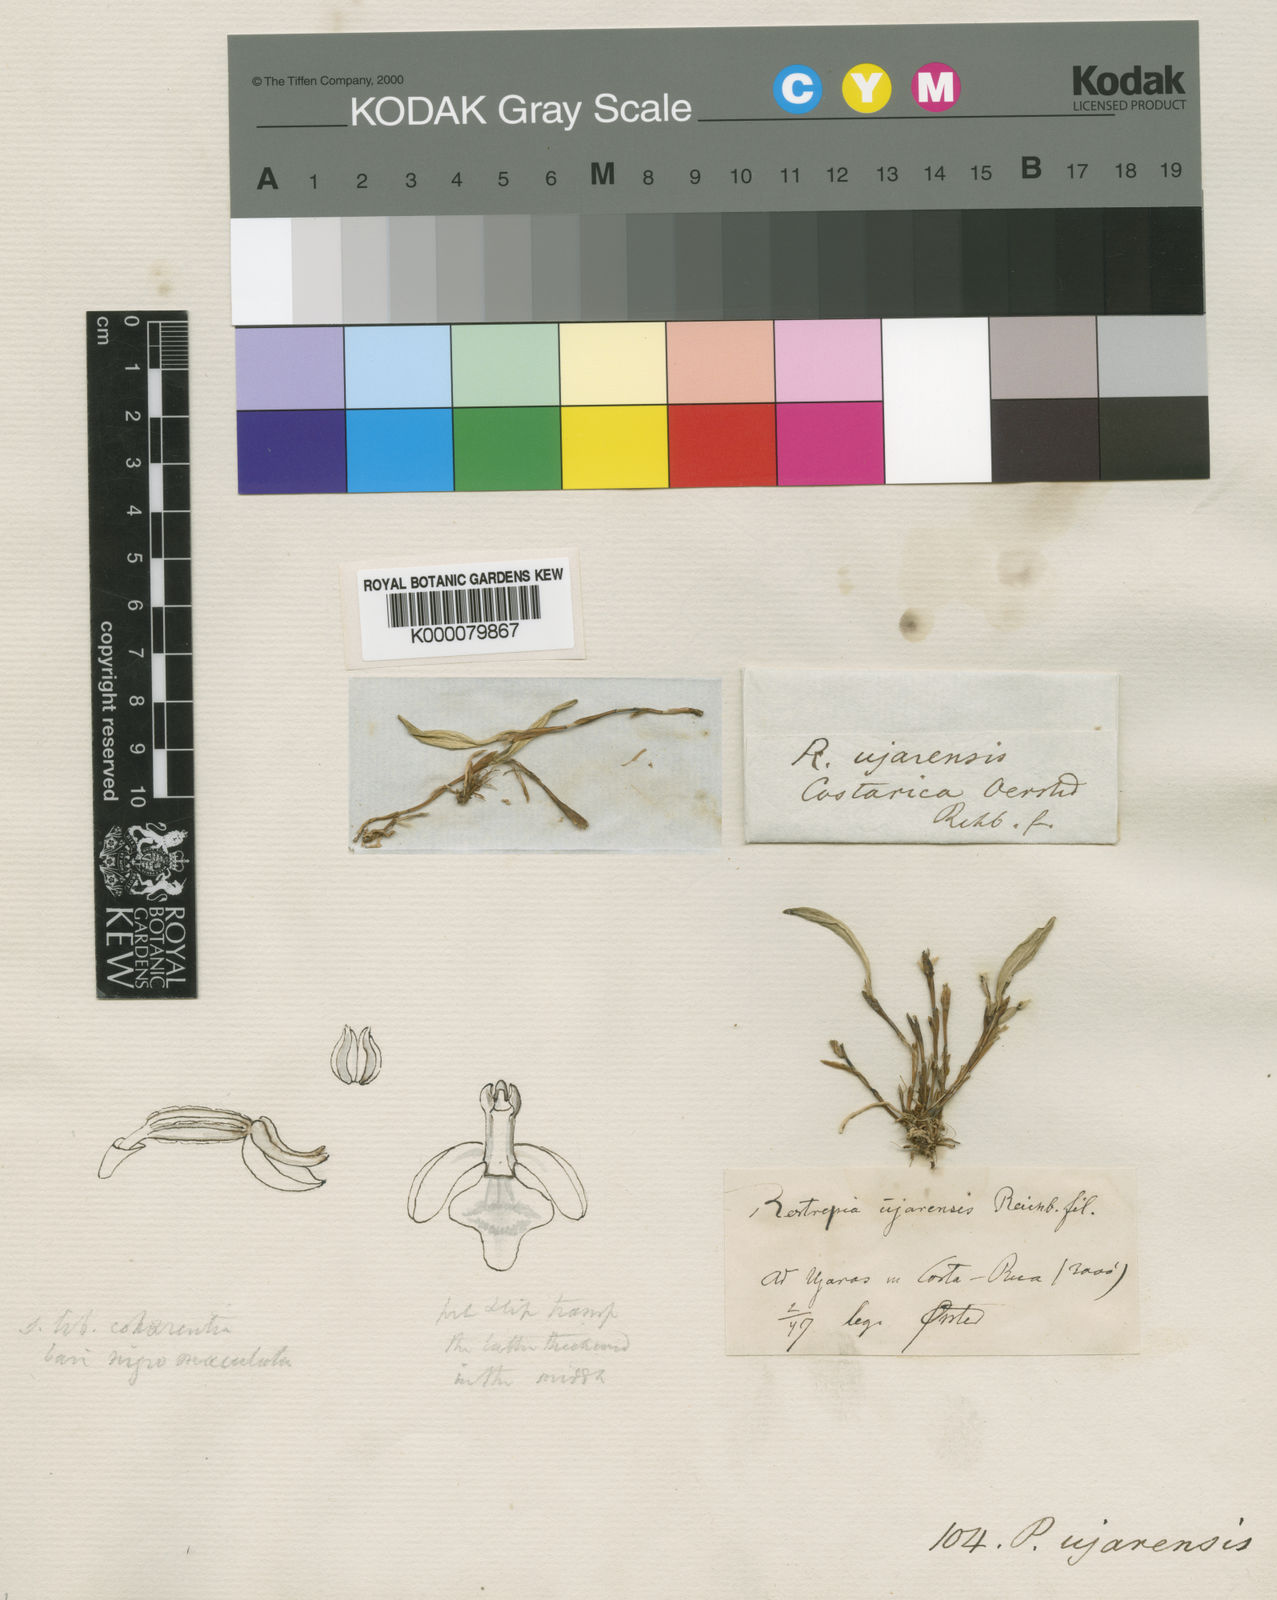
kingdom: Plantae
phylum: Tracheophyta
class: Liliopsida
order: Asparagales
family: Orchidaceae
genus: Pleurothallopsis
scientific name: Pleurothallopsis ujarensis
